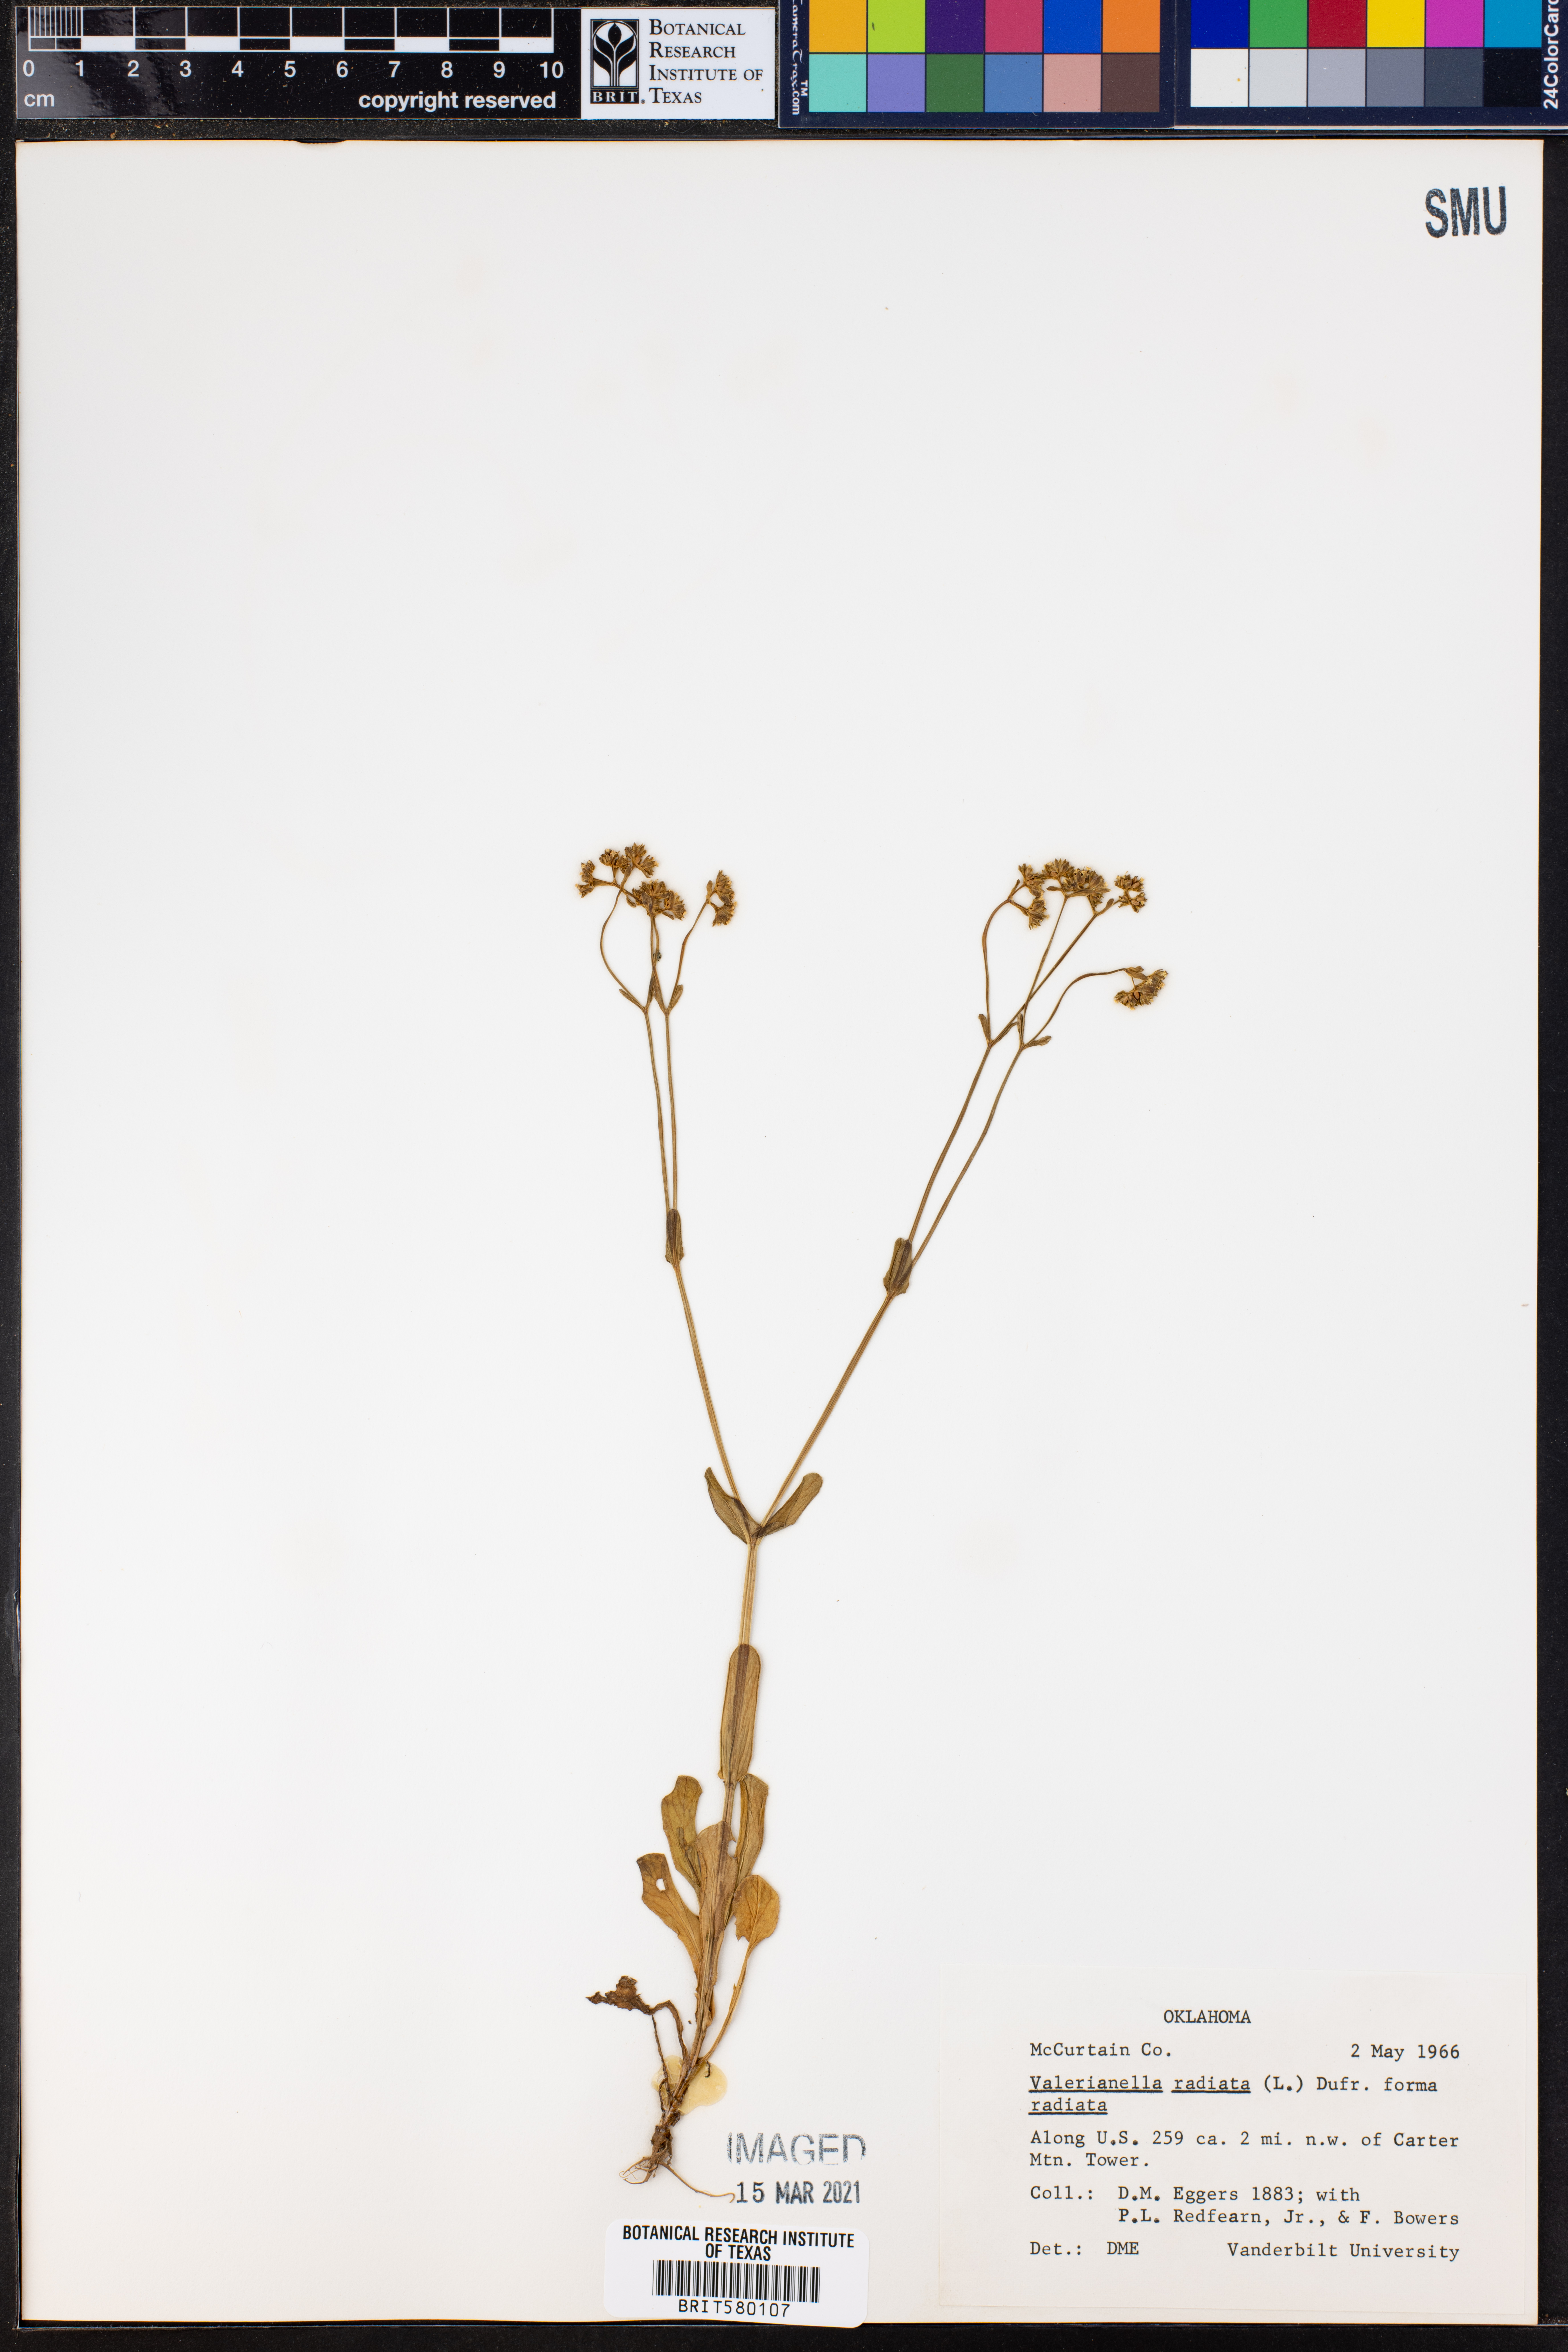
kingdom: Plantae
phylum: Tracheophyta
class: Magnoliopsida
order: Dipsacales
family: Caprifoliaceae
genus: Valerianella
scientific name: Valerianella radiata
